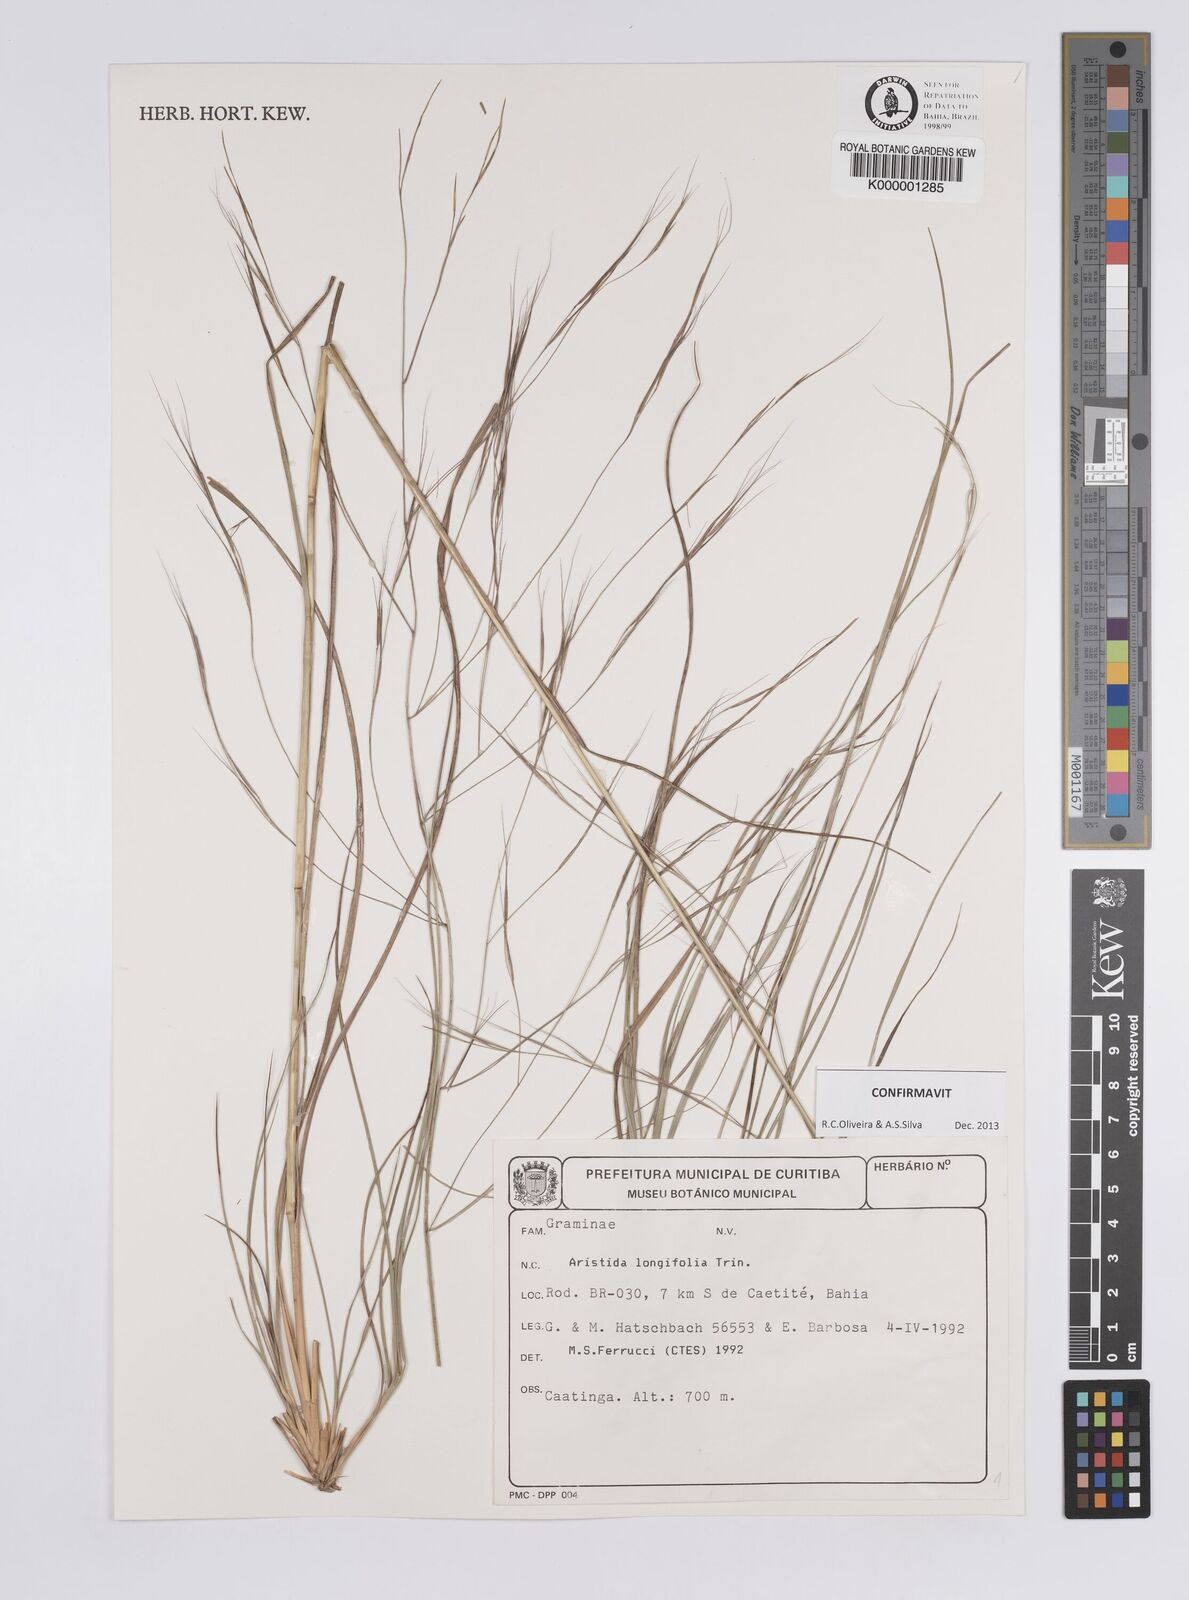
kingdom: Plantae
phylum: Tracheophyta
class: Liliopsida
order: Poales
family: Poaceae
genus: Aristida
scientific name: Aristida longifolia
